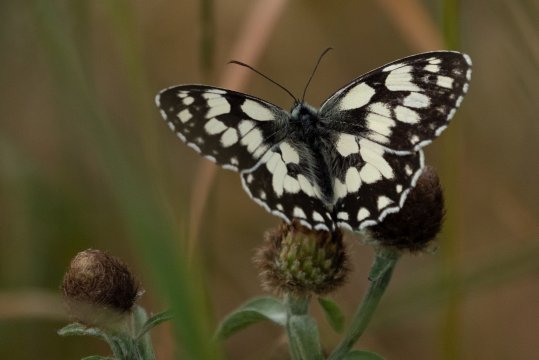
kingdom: Animalia
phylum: Arthropoda
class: Insecta
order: Lepidoptera
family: Pieridae
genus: Hesperocharis
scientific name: Hesperocharis graphites
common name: Marbled White
